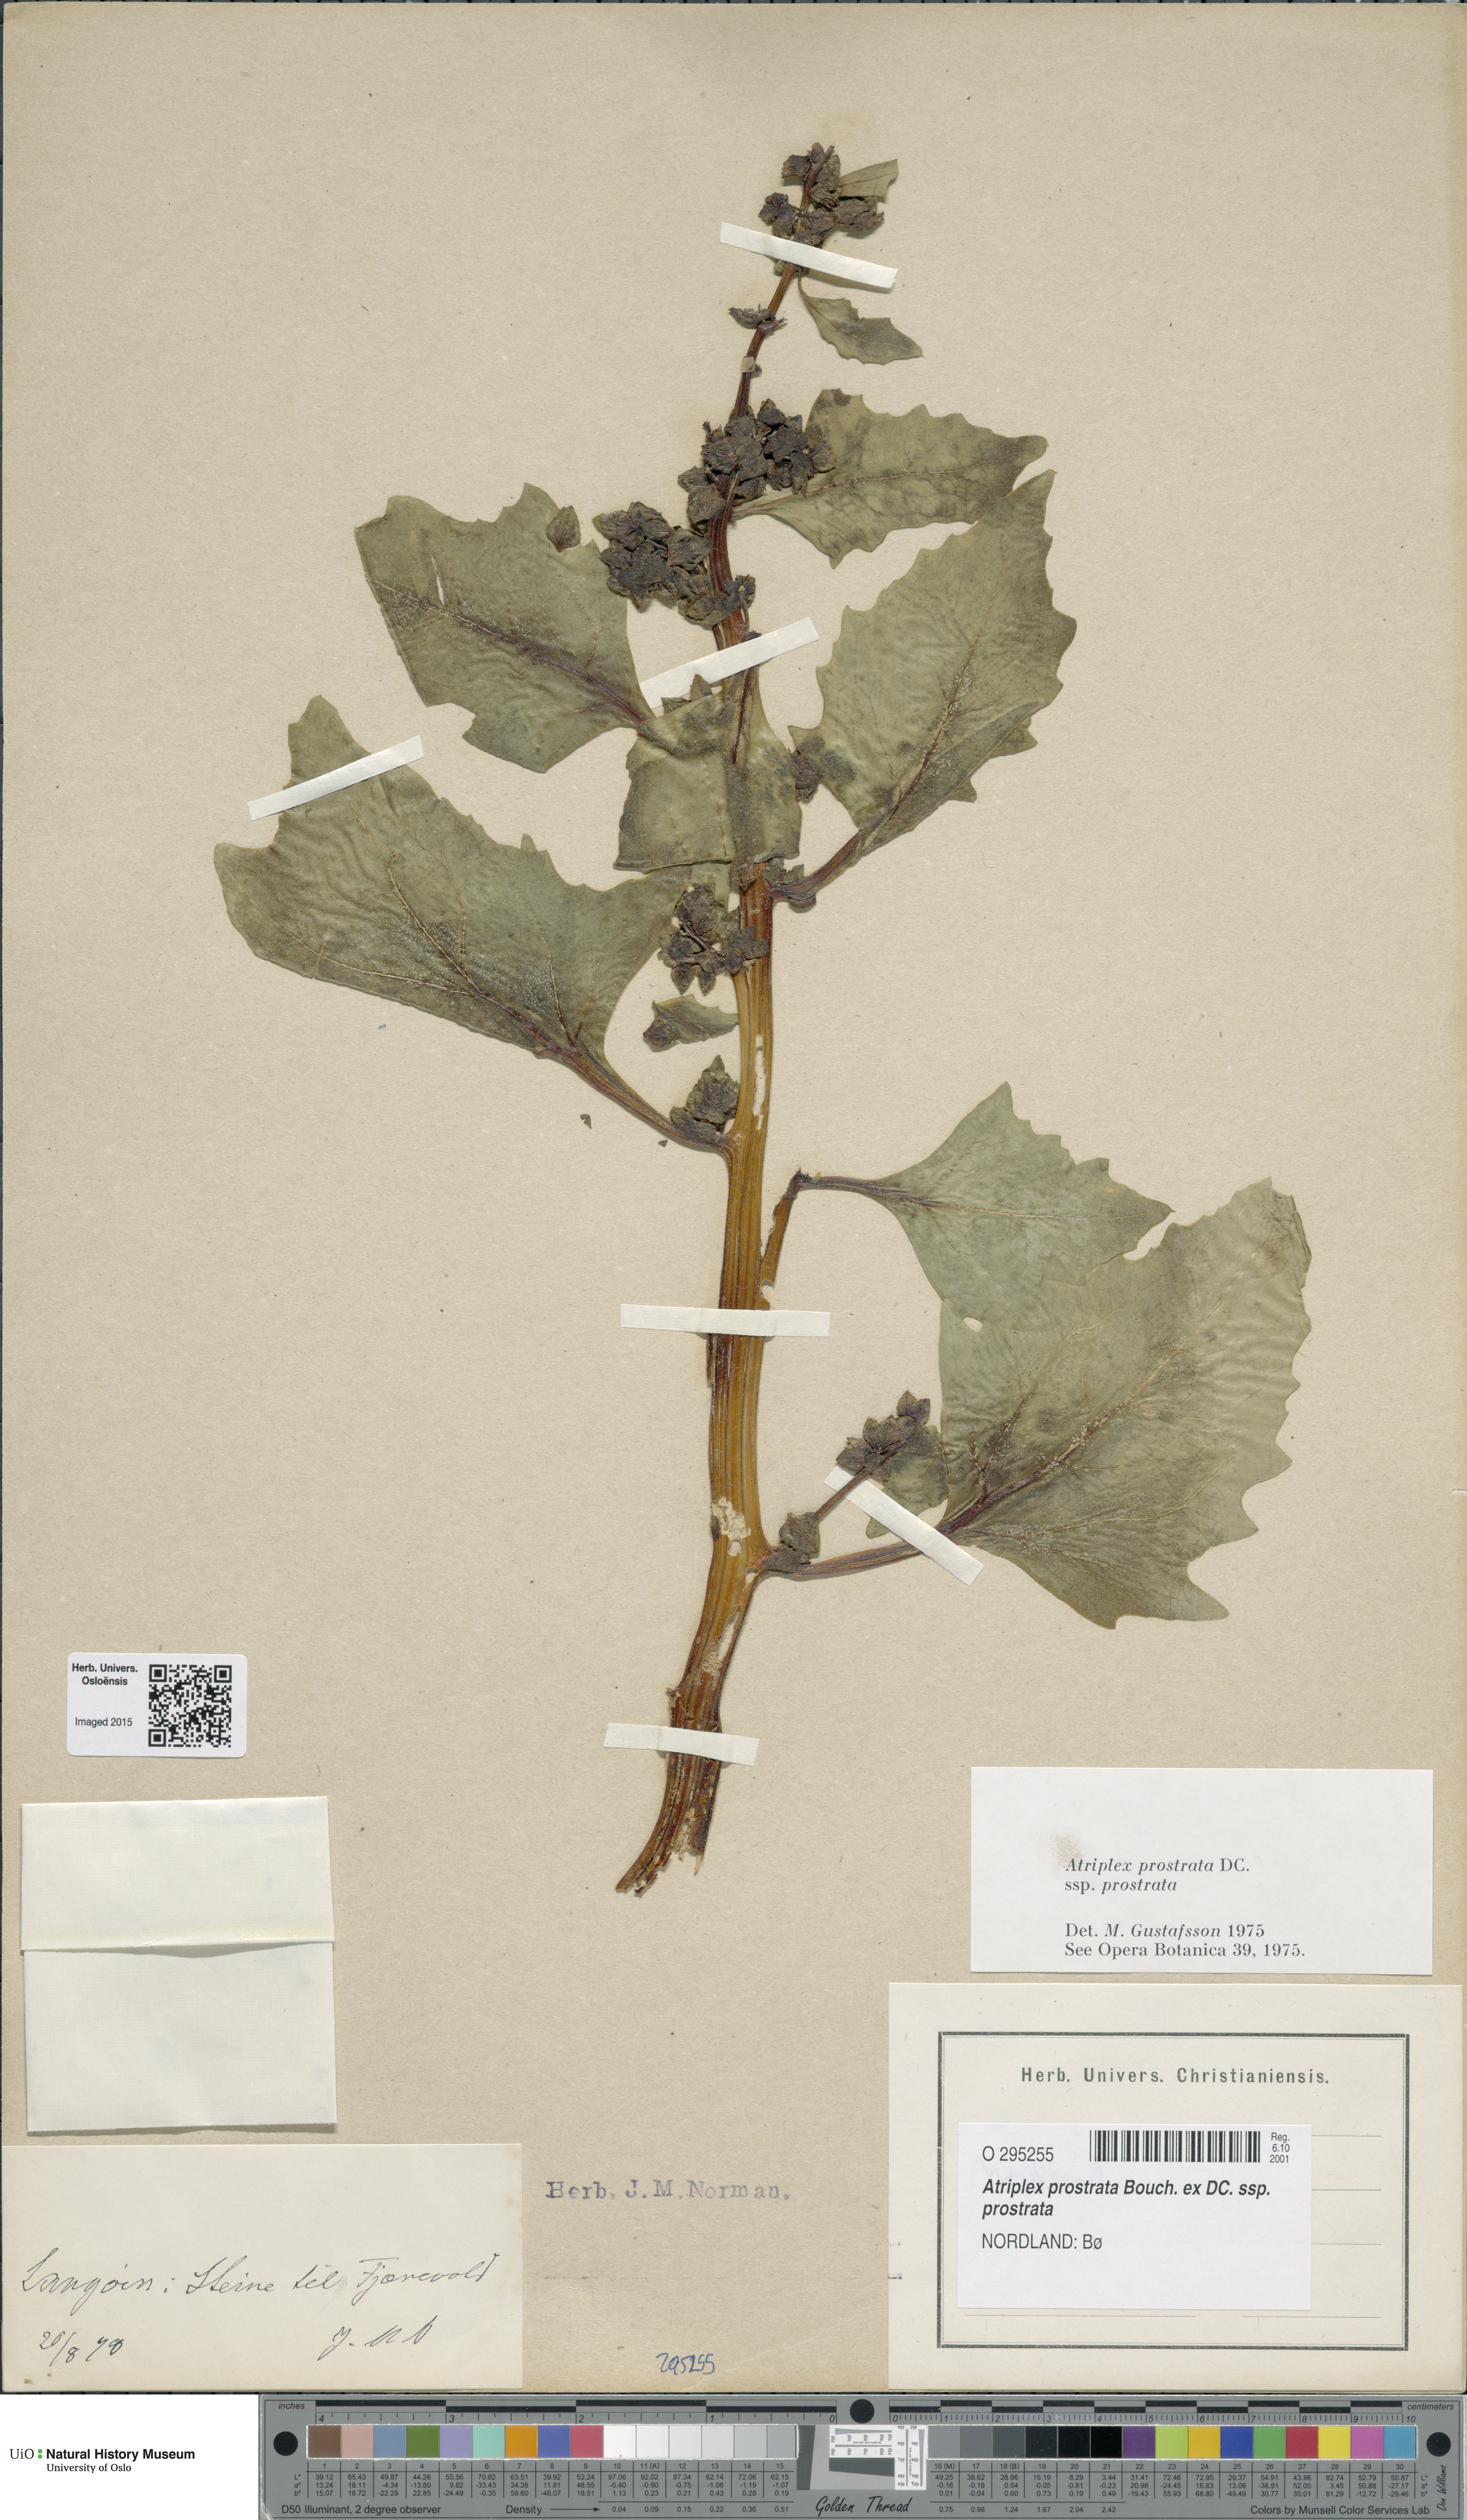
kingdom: Plantae
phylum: Tracheophyta
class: Magnoliopsida
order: Caryophyllales
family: Amaranthaceae
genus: Atriplex
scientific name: Atriplex prostrata
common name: Spear-leaved orache
